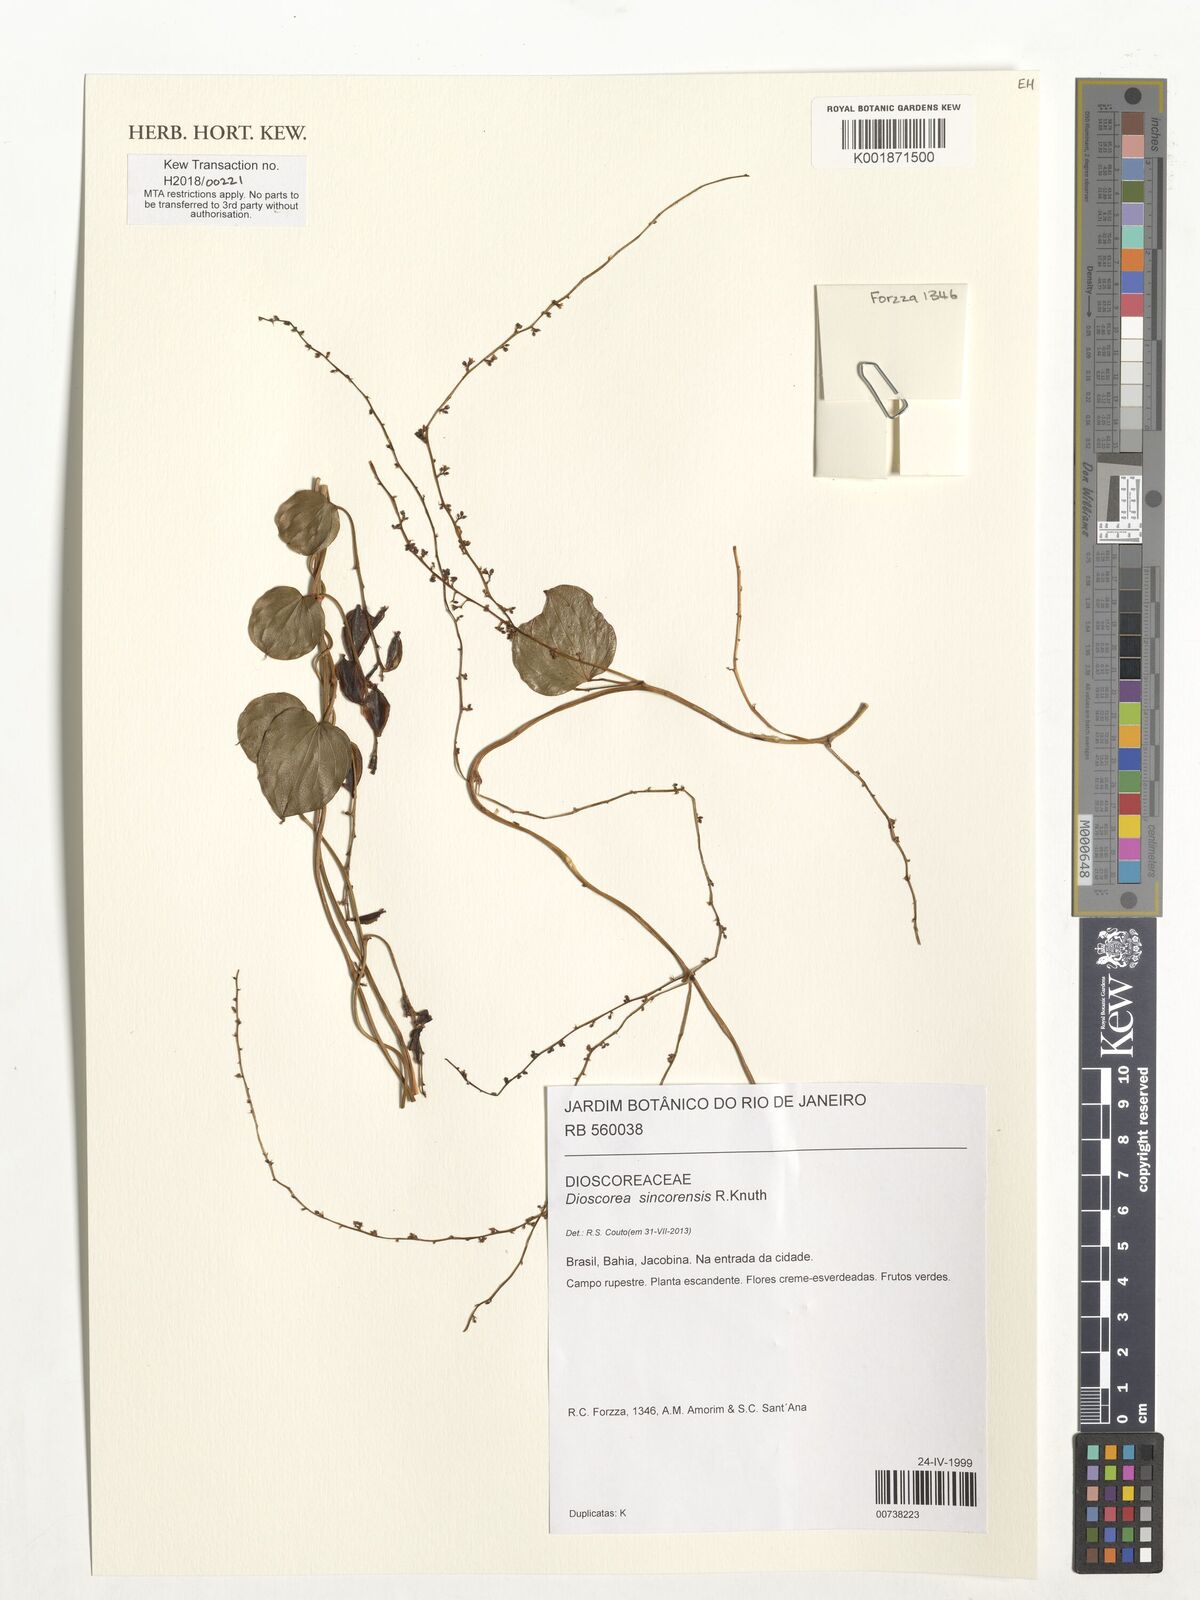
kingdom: Plantae
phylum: Tracheophyta
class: Liliopsida
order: Dioscoreales
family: Dioscoreaceae
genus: Dioscorea
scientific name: Dioscorea sincorensis
